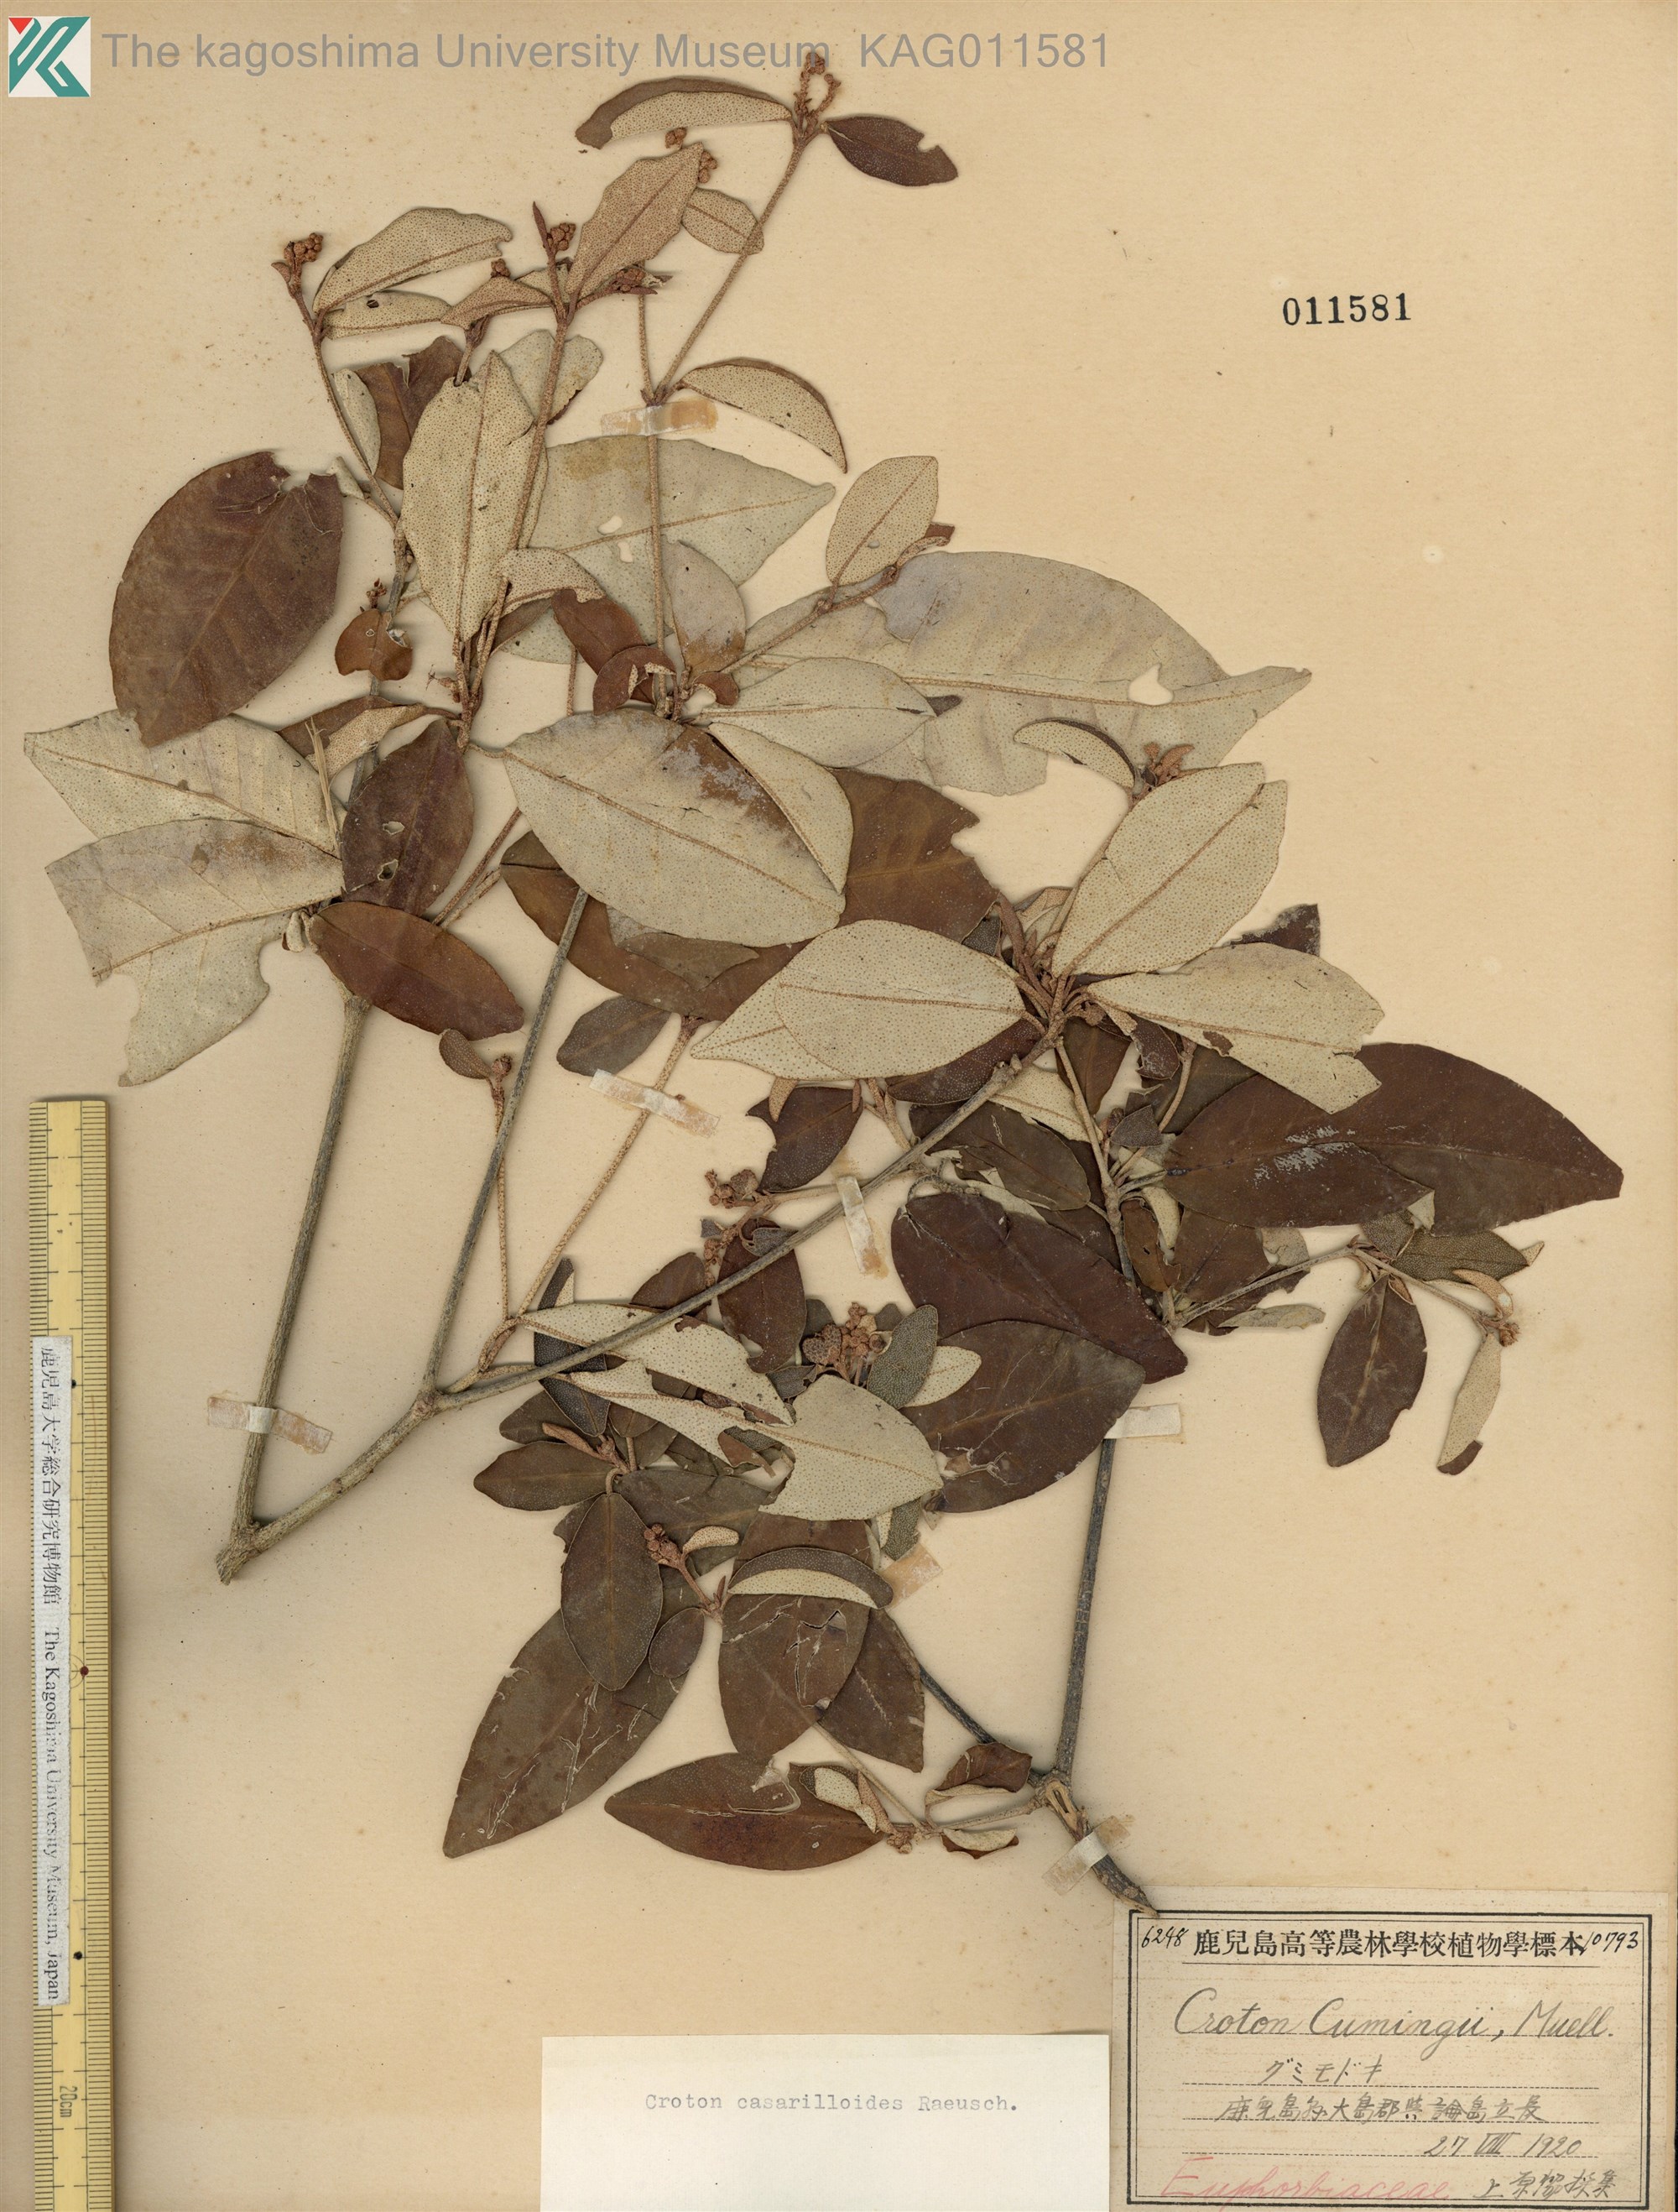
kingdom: Plantae
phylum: Tracheophyta
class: Magnoliopsida
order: Malpighiales
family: Euphorbiaceae
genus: Croton
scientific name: Croton cascarilloides
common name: グミモドキ
